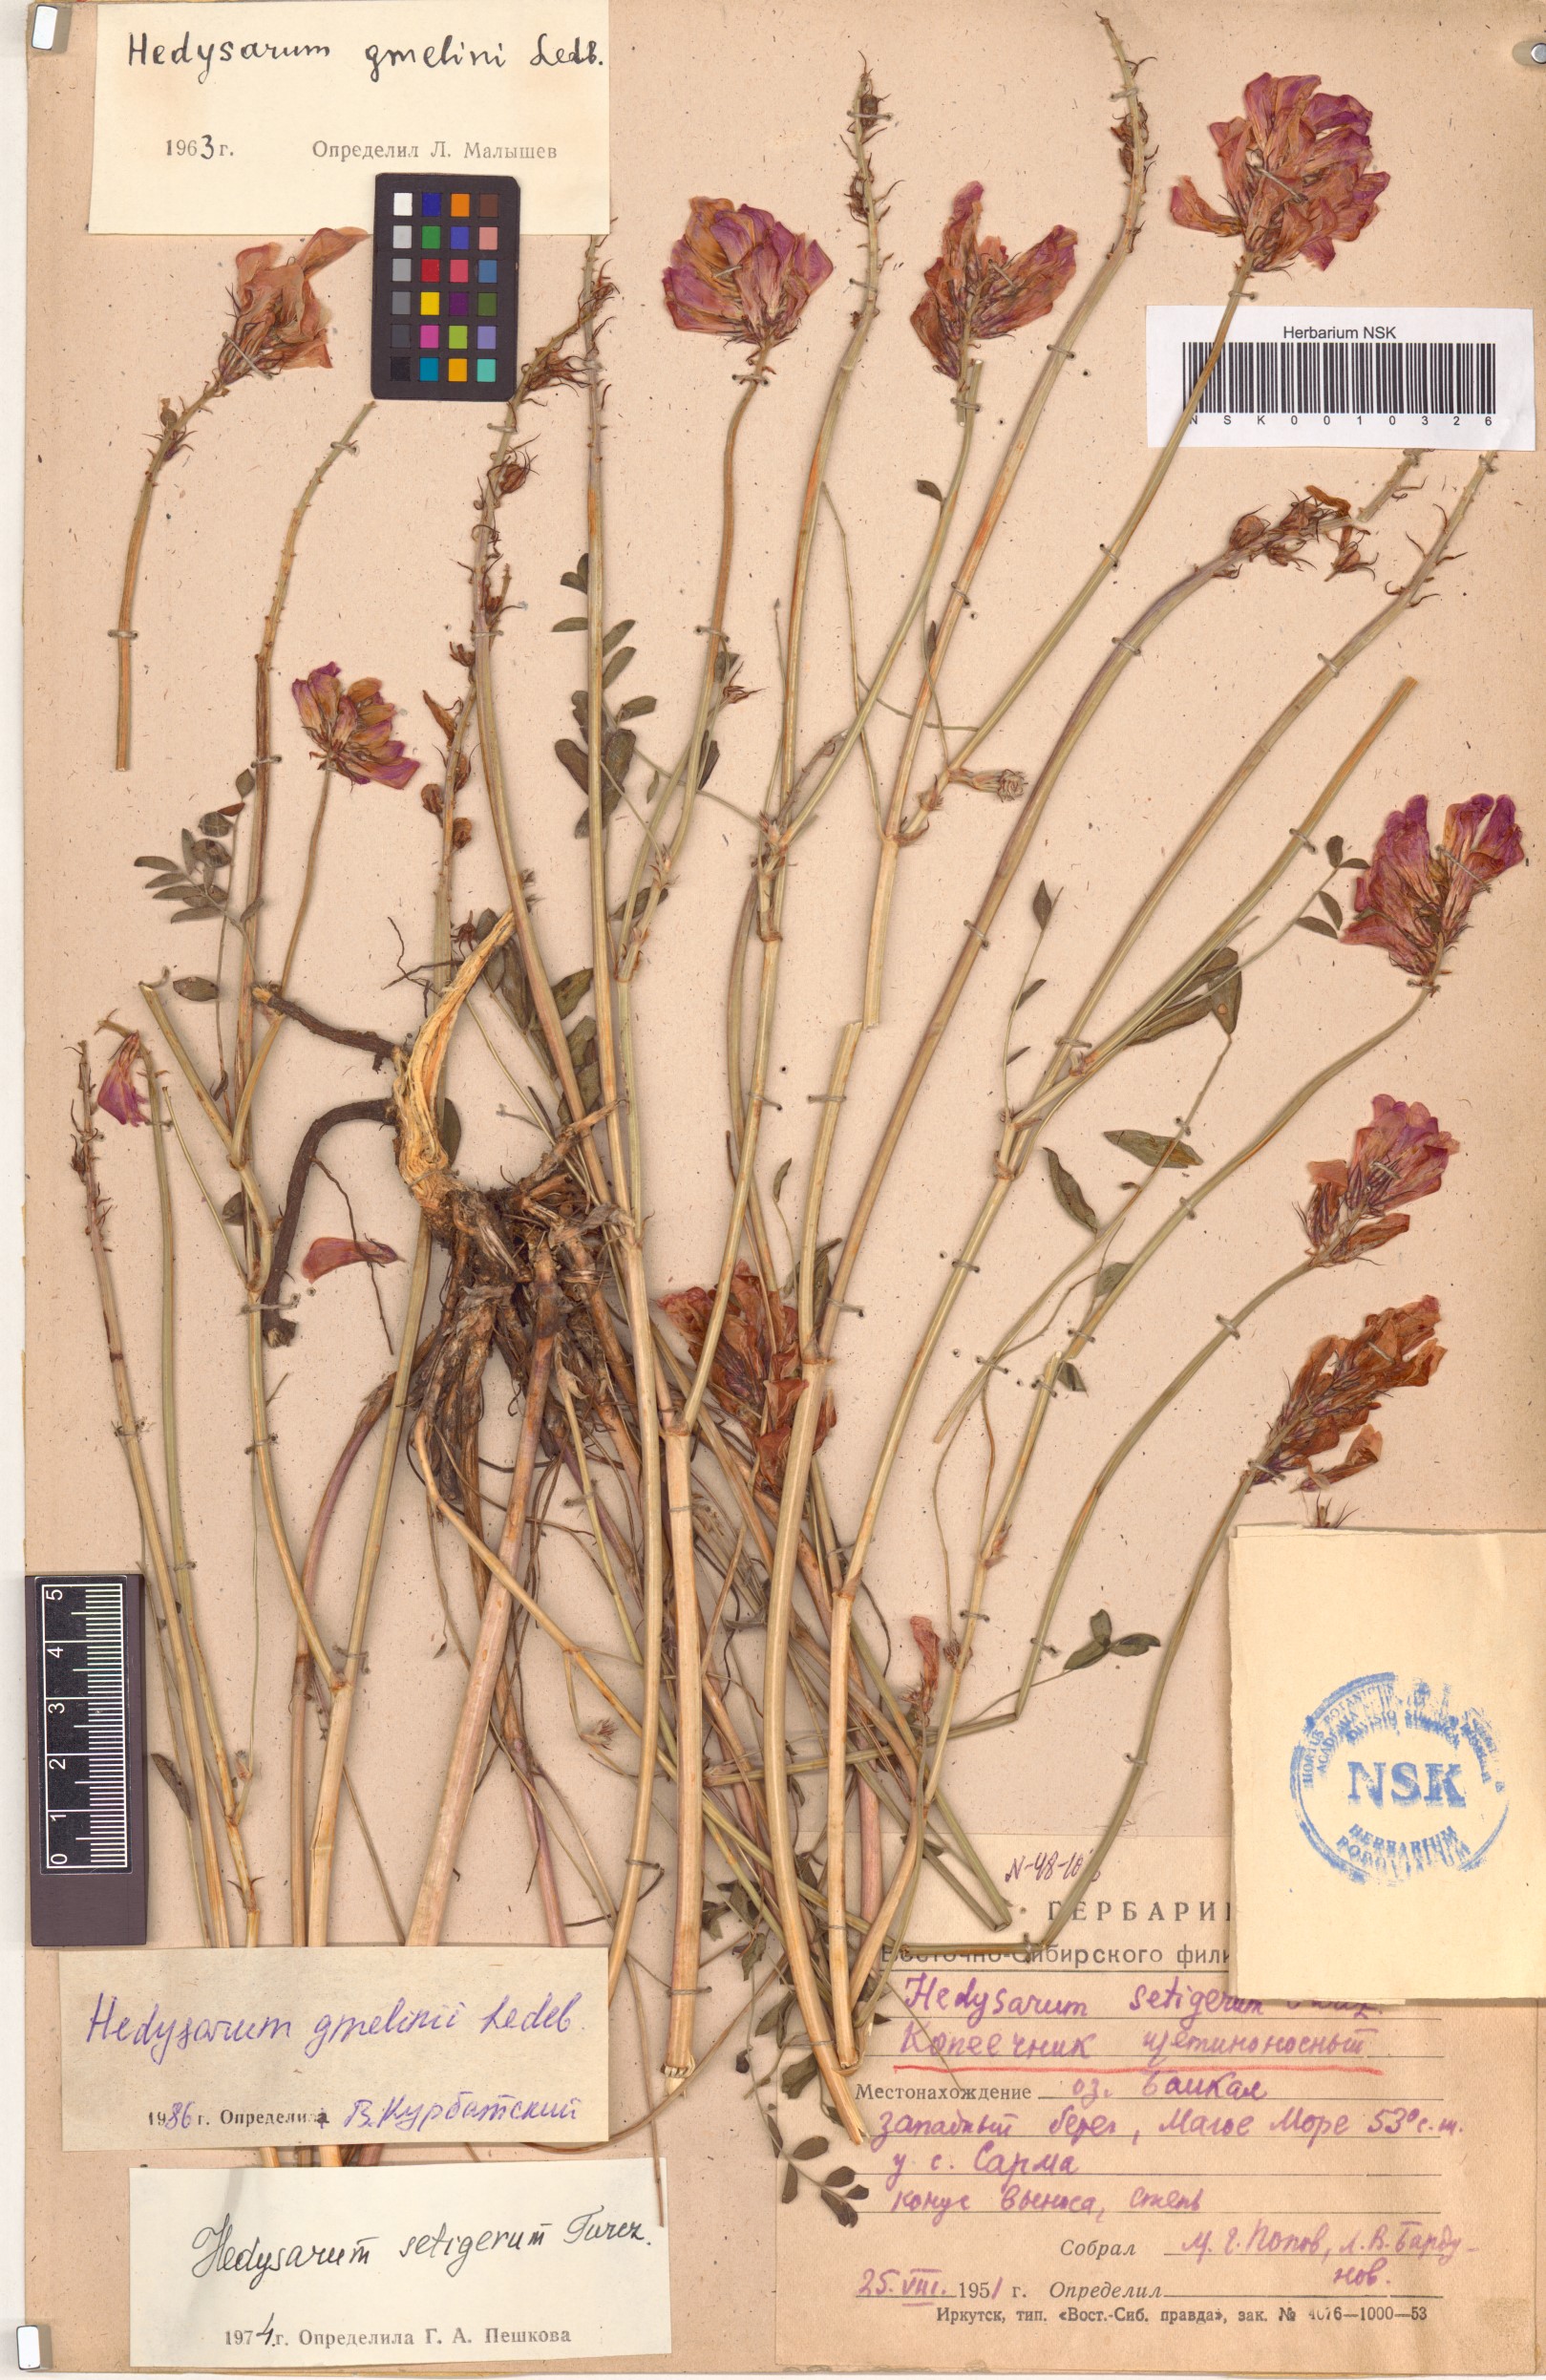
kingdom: Plantae
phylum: Tracheophyta
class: Magnoliopsida
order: Fabales
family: Fabaceae
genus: Hedysarum
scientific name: Hedysarum gmelinii
